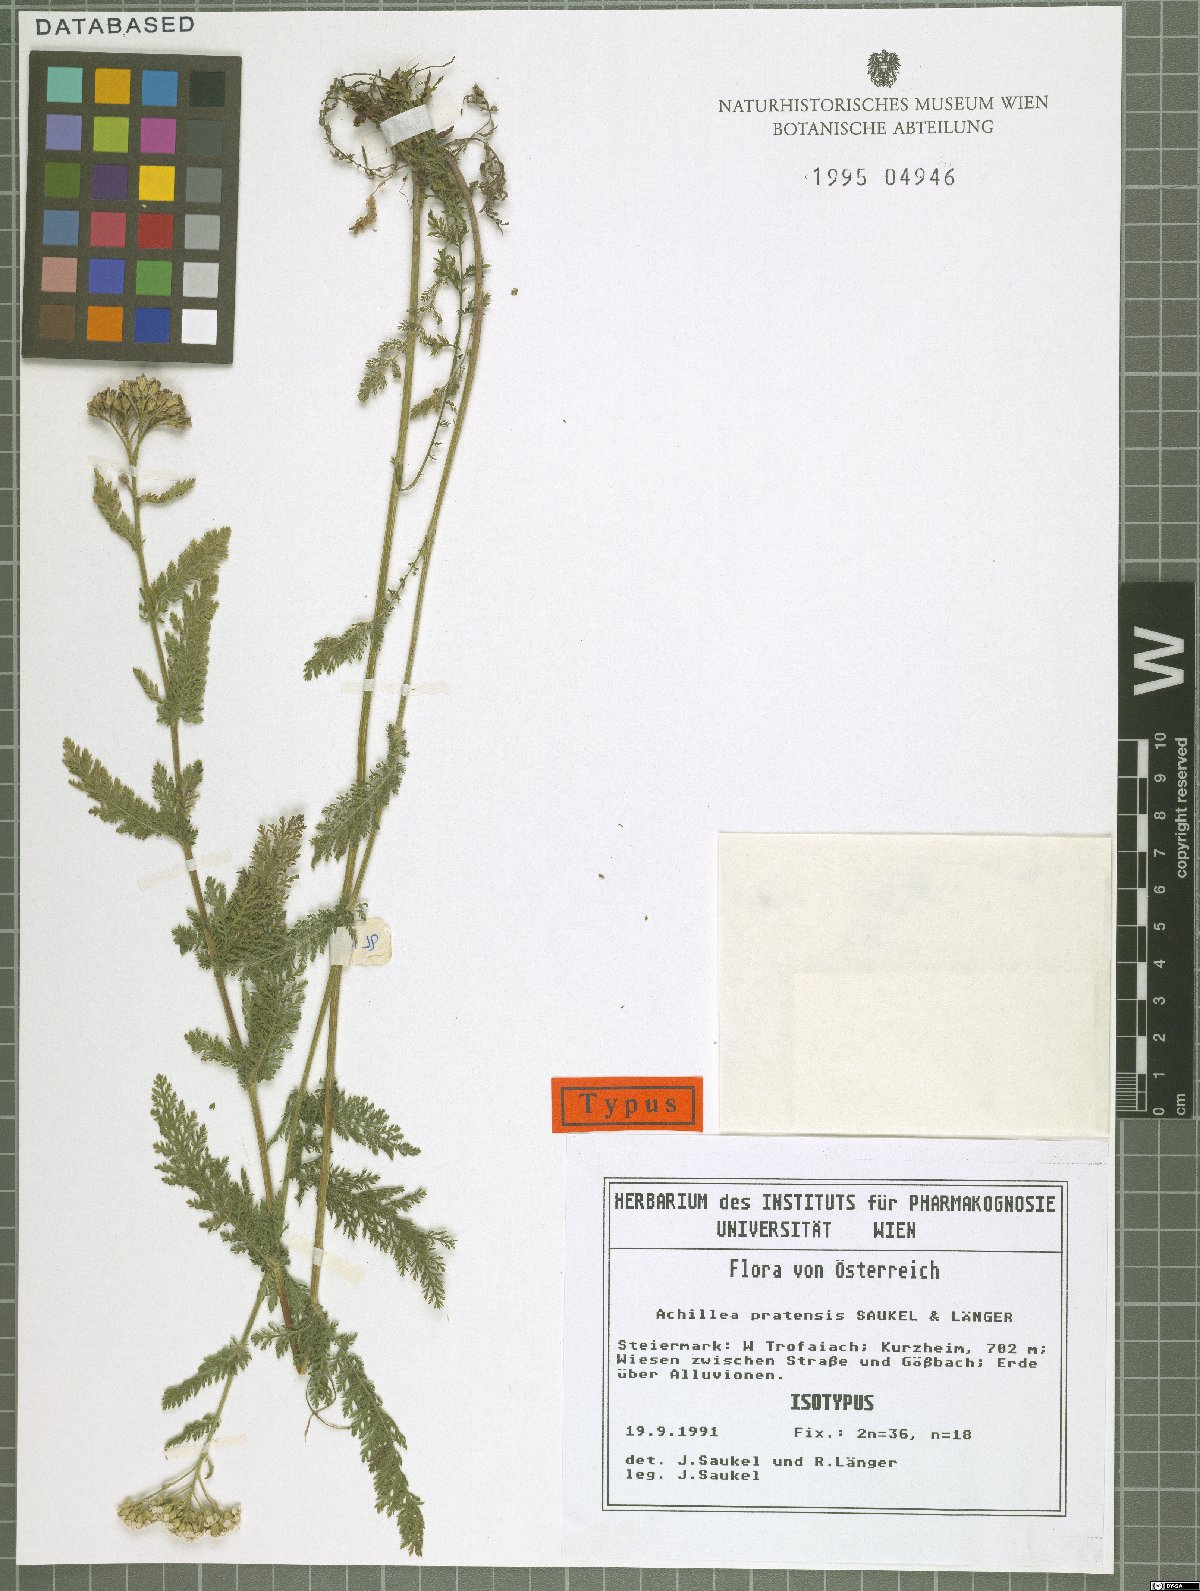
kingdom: Plantae
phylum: Tracheophyta
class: Magnoliopsida
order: Asterales
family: Asteraceae
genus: Achillea
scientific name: Achillea pratensis
